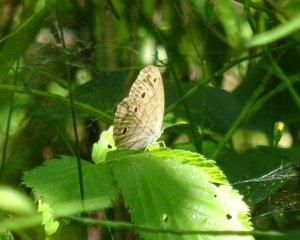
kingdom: Animalia
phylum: Arthropoda
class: Insecta
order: Lepidoptera
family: Nymphalidae
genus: Euptychia
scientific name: Euptychia cymela
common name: Little Wood Satyr
